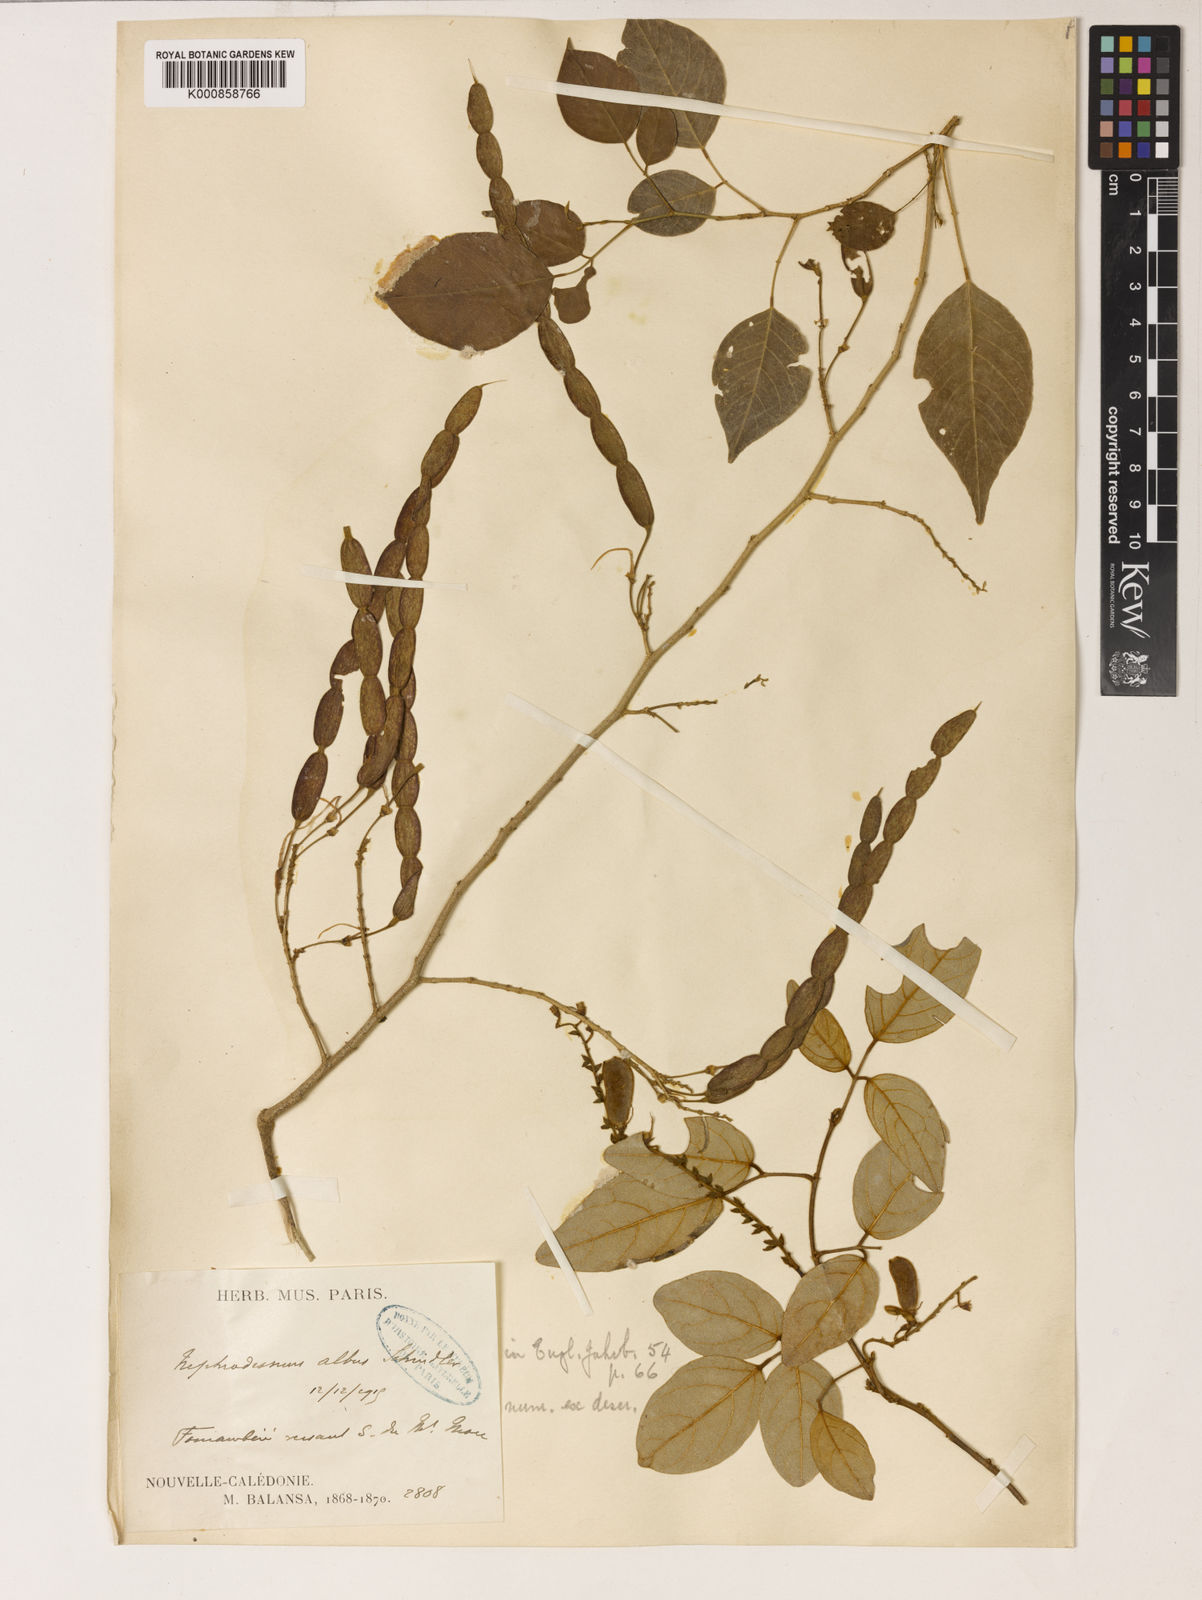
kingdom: Plantae
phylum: Tracheophyta
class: Magnoliopsida
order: Fabales
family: Fabaceae
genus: Nephrodesmus
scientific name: Nephrodesmus francii
